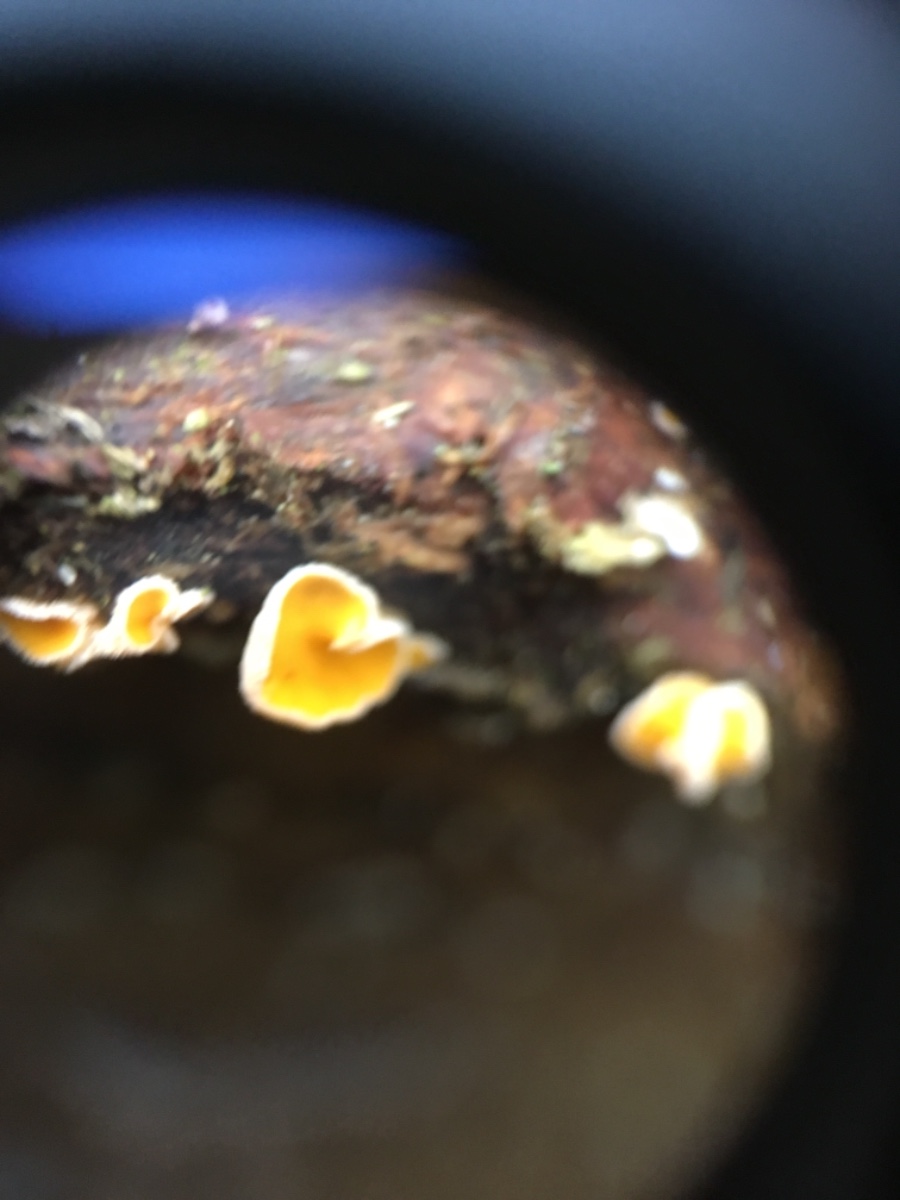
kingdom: Fungi
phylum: Ascomycota
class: Leotiomycetes
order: Helotiales
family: Lachnaceae
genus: Lachnellula
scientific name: Lachnellula calyciformis
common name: ædelgran-frynseskive
